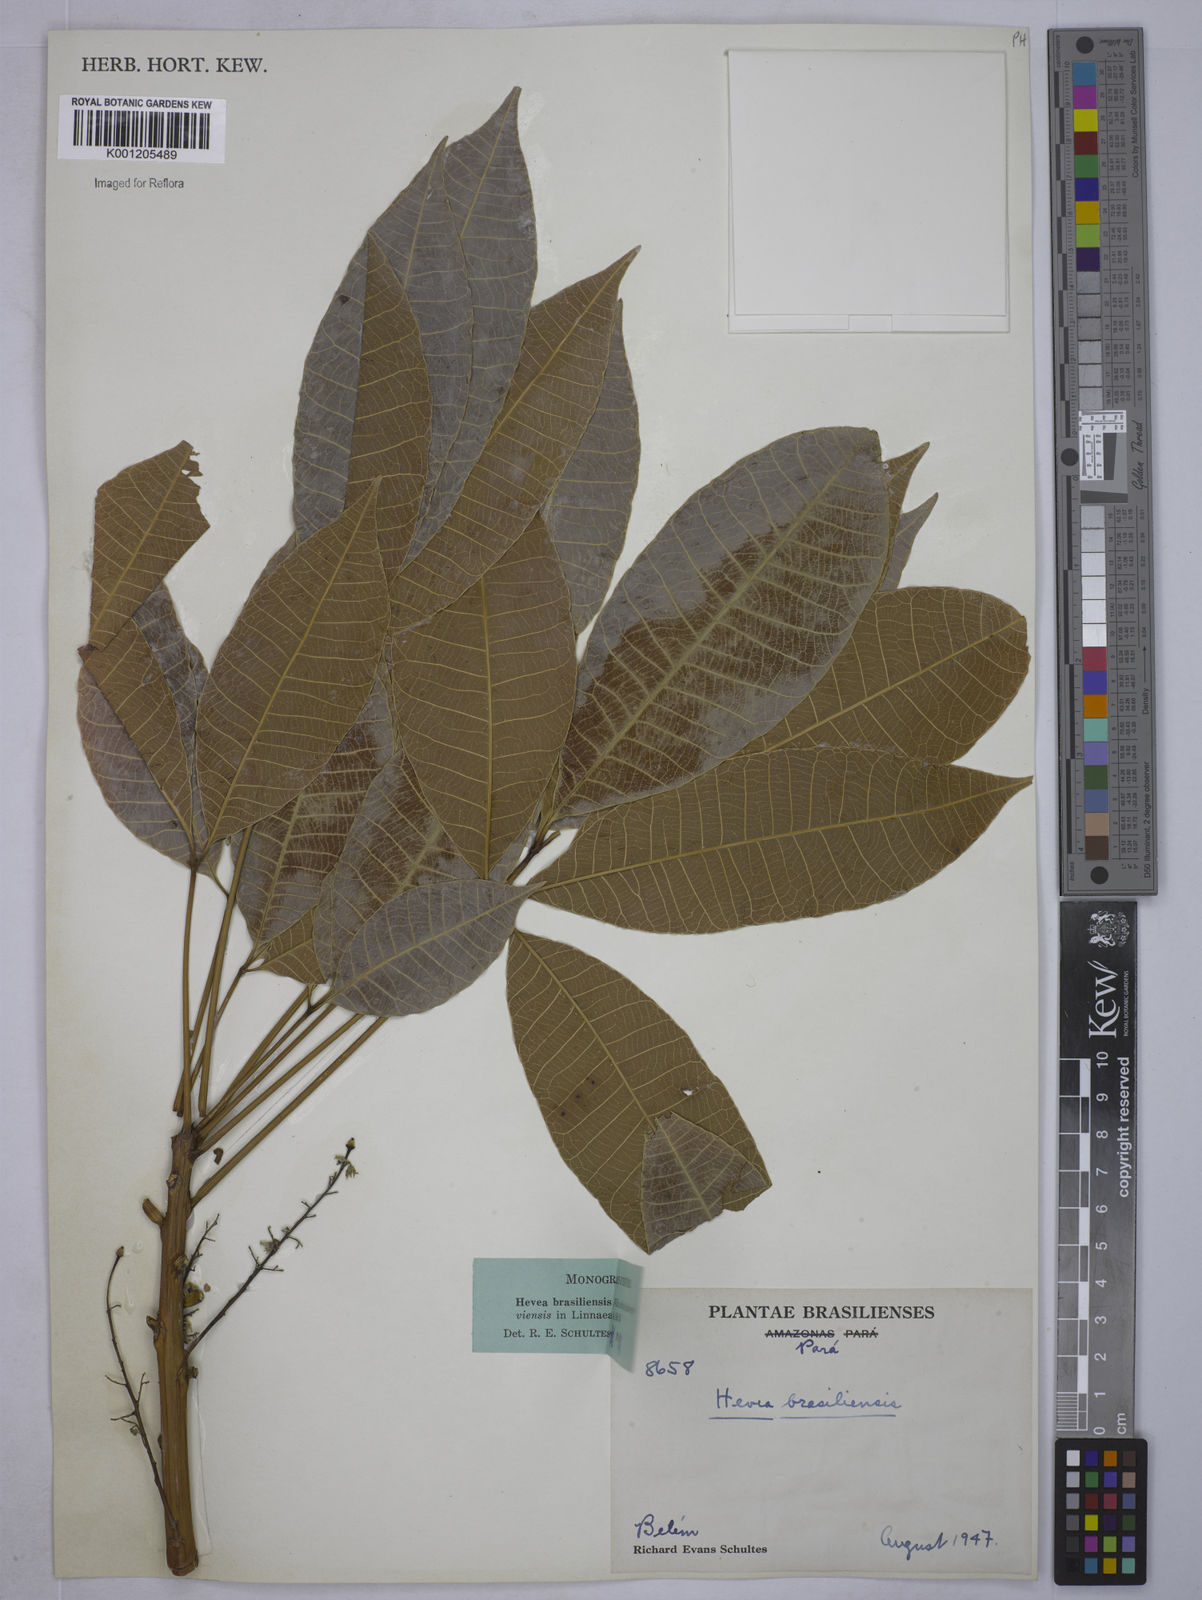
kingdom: Plantae
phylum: Tracheophyta
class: Magnoliopsida
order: Malpighiales
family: Euphorbiaceae
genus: Hevea
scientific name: Hevea
